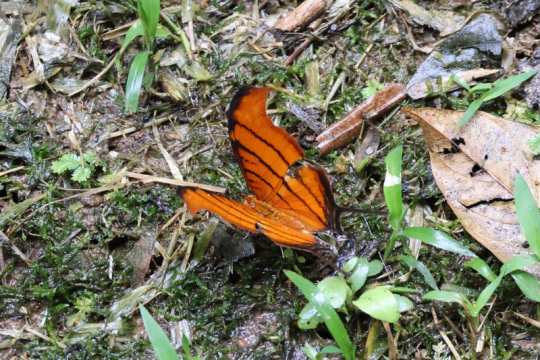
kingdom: Animalia
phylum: Arthropoda
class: Insecta
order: Lepidoptera
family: Nymphalidae
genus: Marpesia
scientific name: Marpesia petreus
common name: Ruddy Daggerwing
